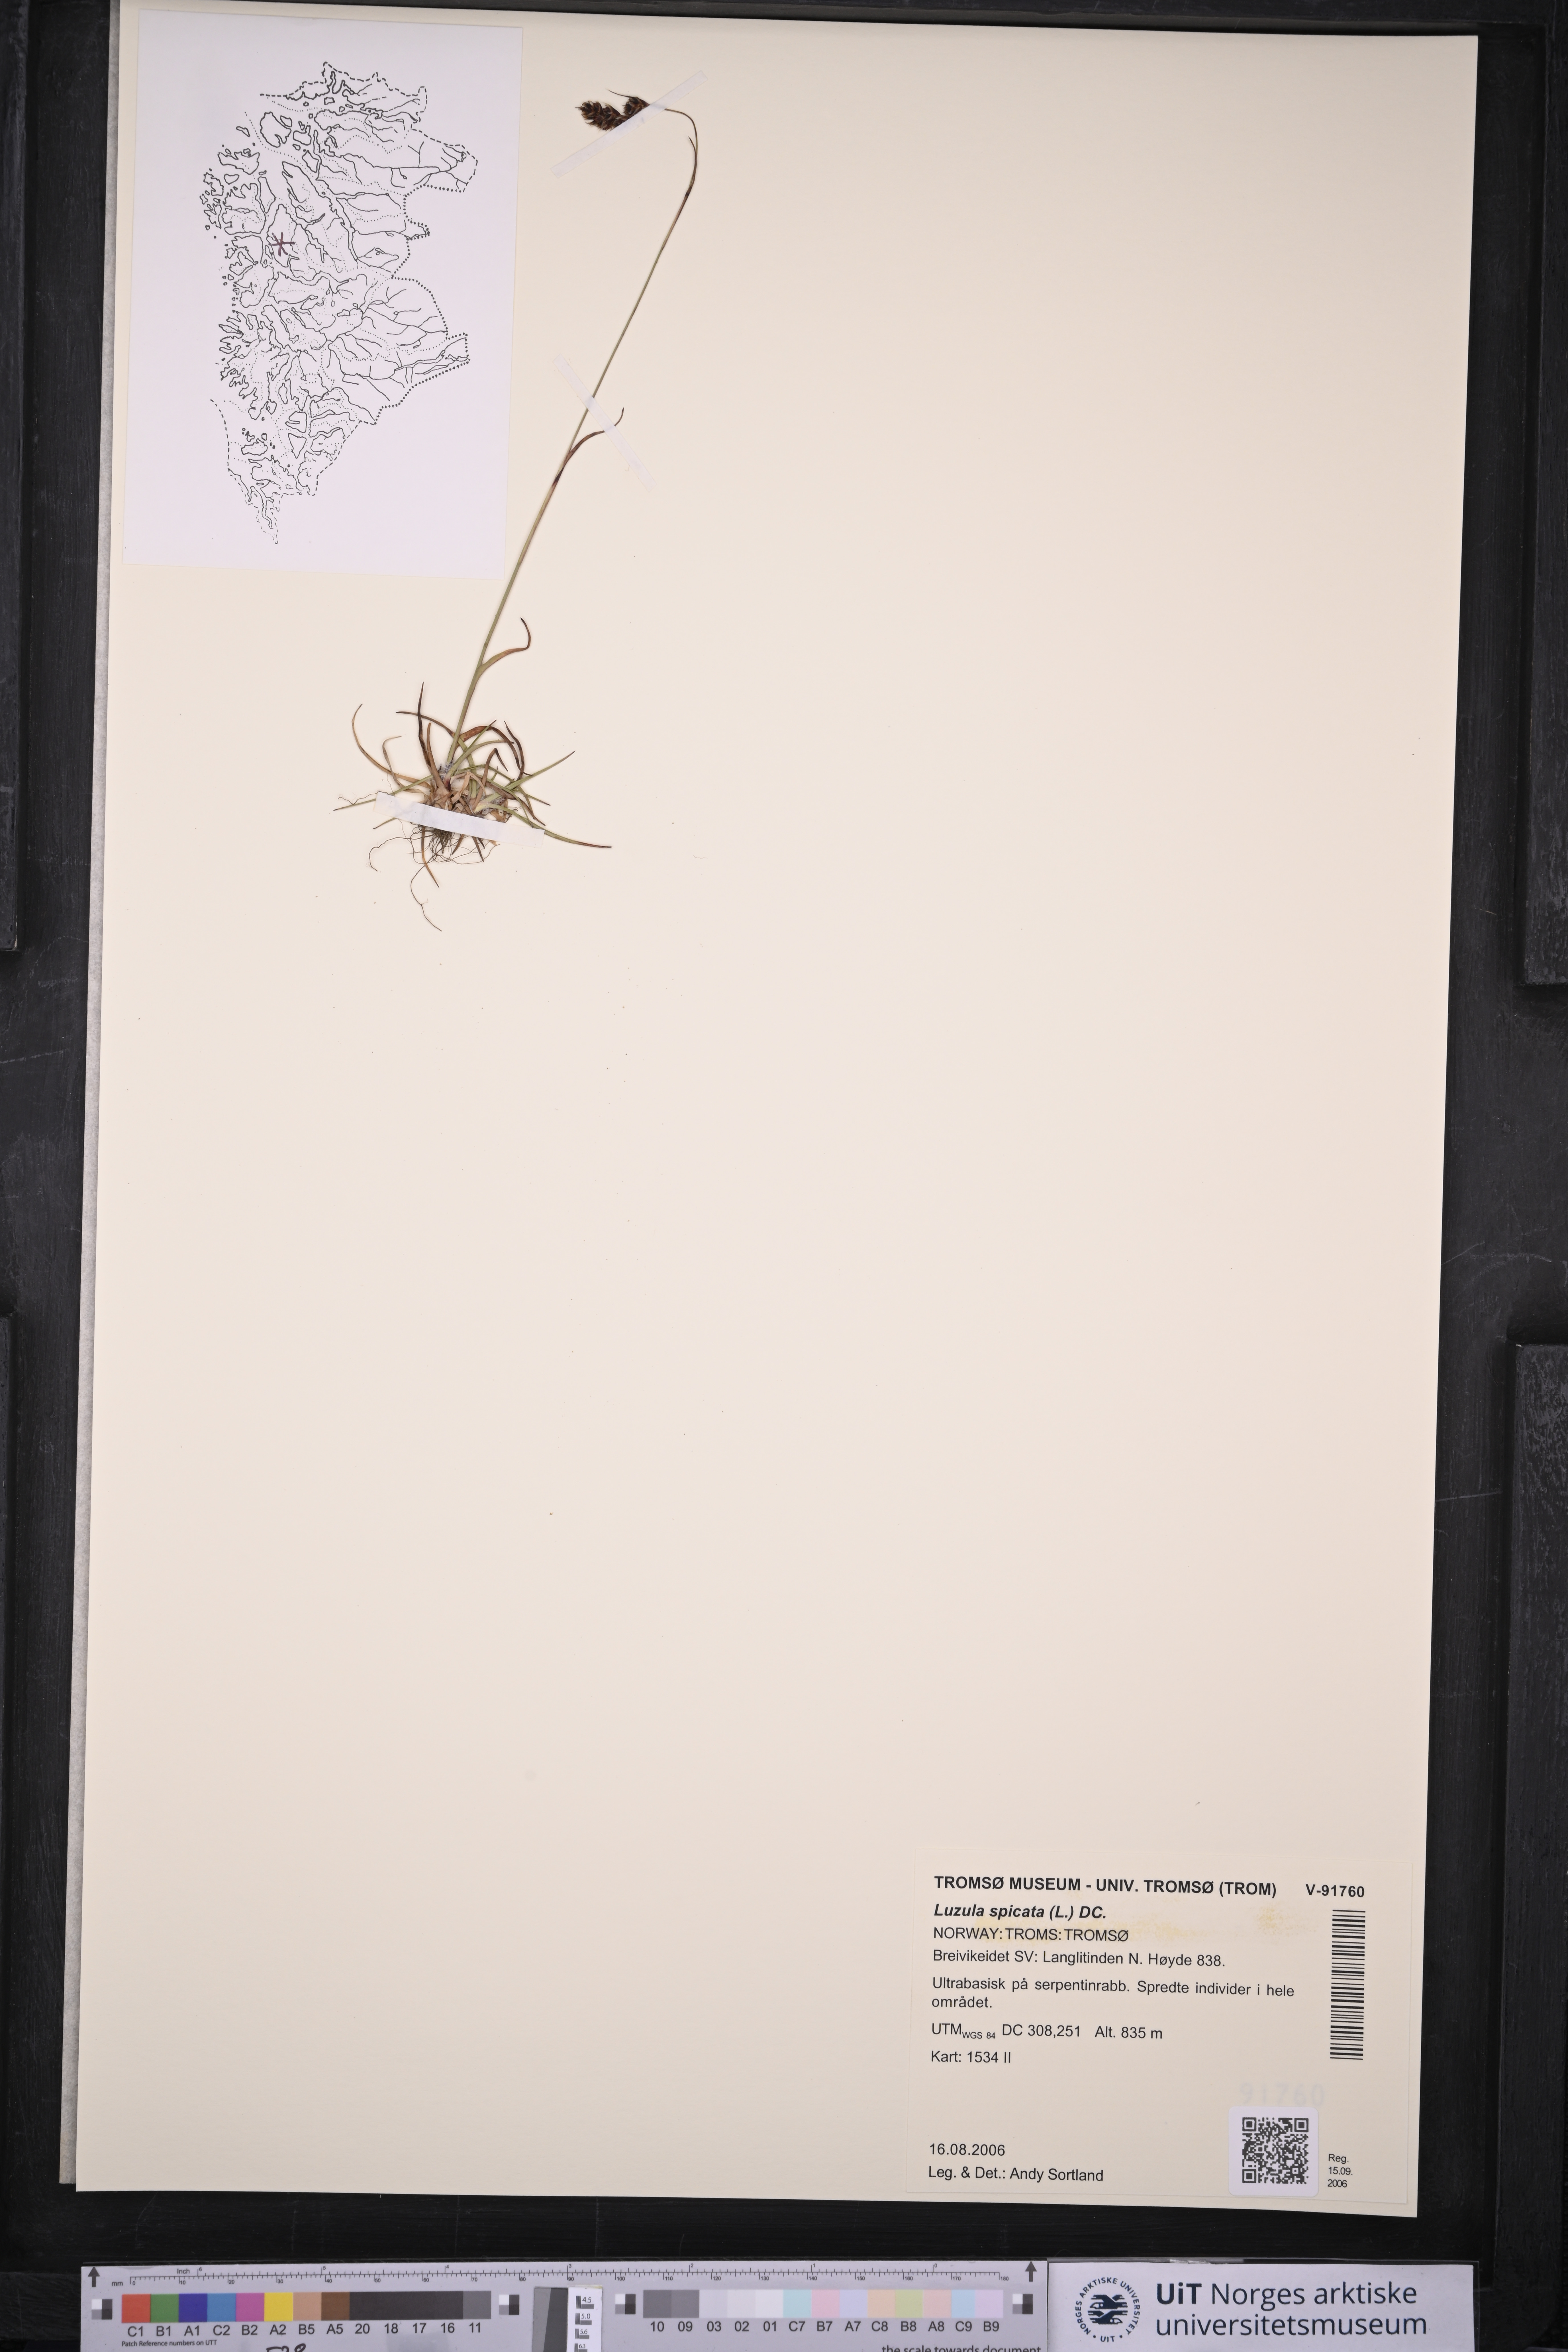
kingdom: Plantae
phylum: Tracheophyta
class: Liliopsida
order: Poales
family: Juncaceae
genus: Luzula
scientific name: Luzula spicata
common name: Spiked wood-rush
